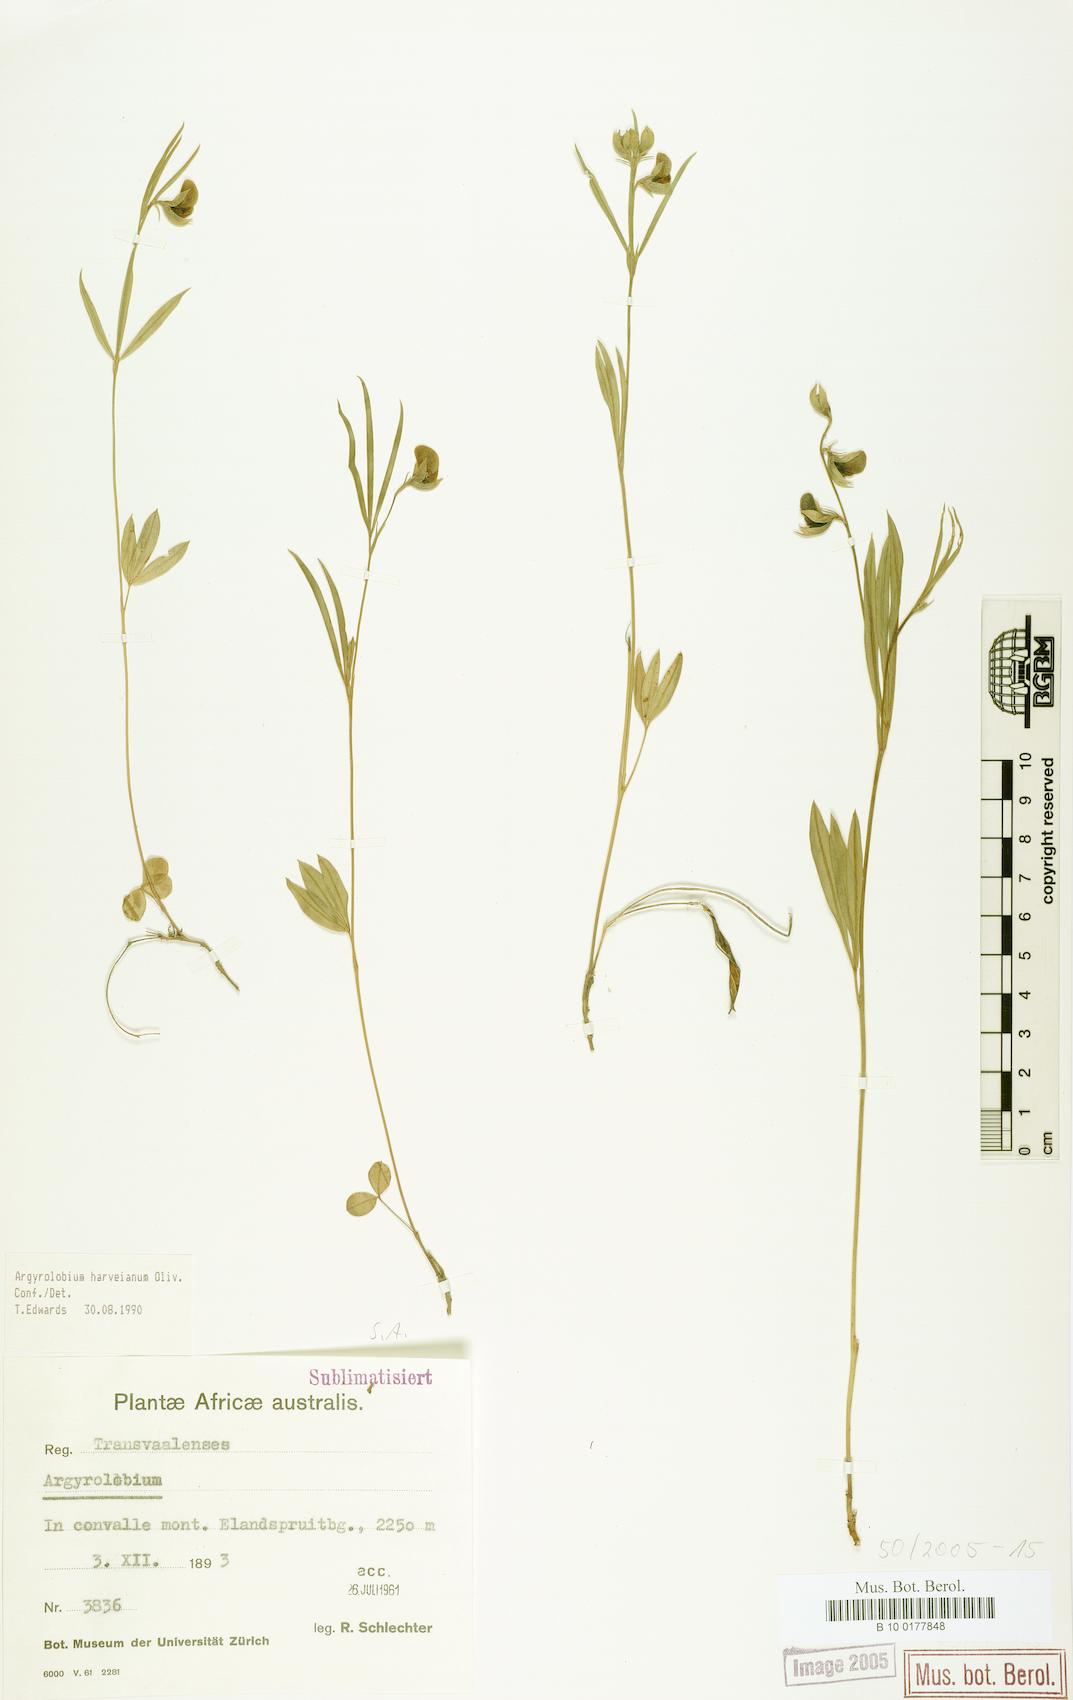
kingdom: Plantae
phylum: Tracheophyta
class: Magnoliopsida
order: Fabales
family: Fabaceae
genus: Argyrolobium
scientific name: Argyrolobium harveyanum
